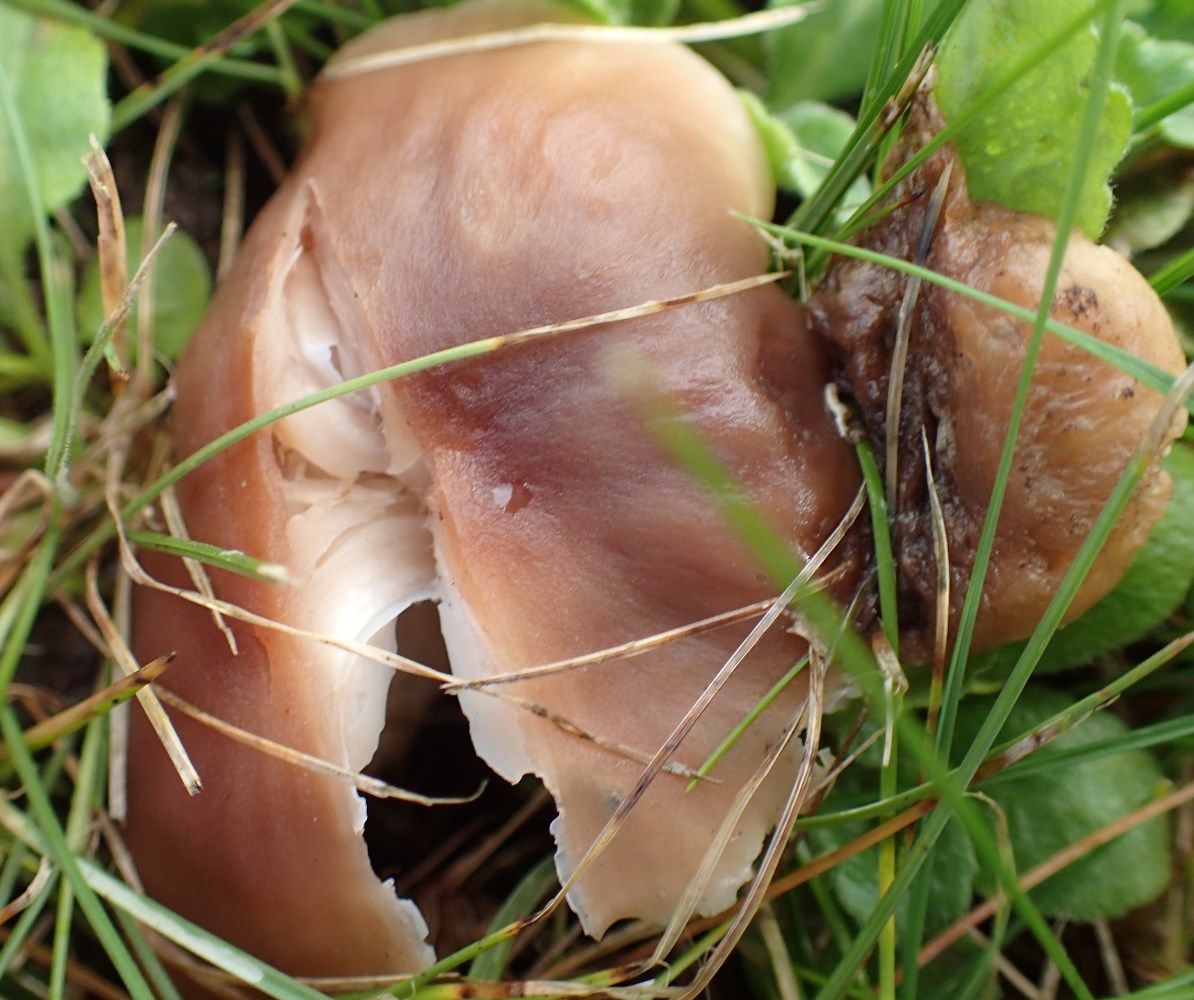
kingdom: Fungi
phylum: Basidiomycota
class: Agaricomycetes
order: Agaricales
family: Hygrophoraceae
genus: Cuphophyllus
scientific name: Cuphophyllus colemannianus
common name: rødbrun vokshat
